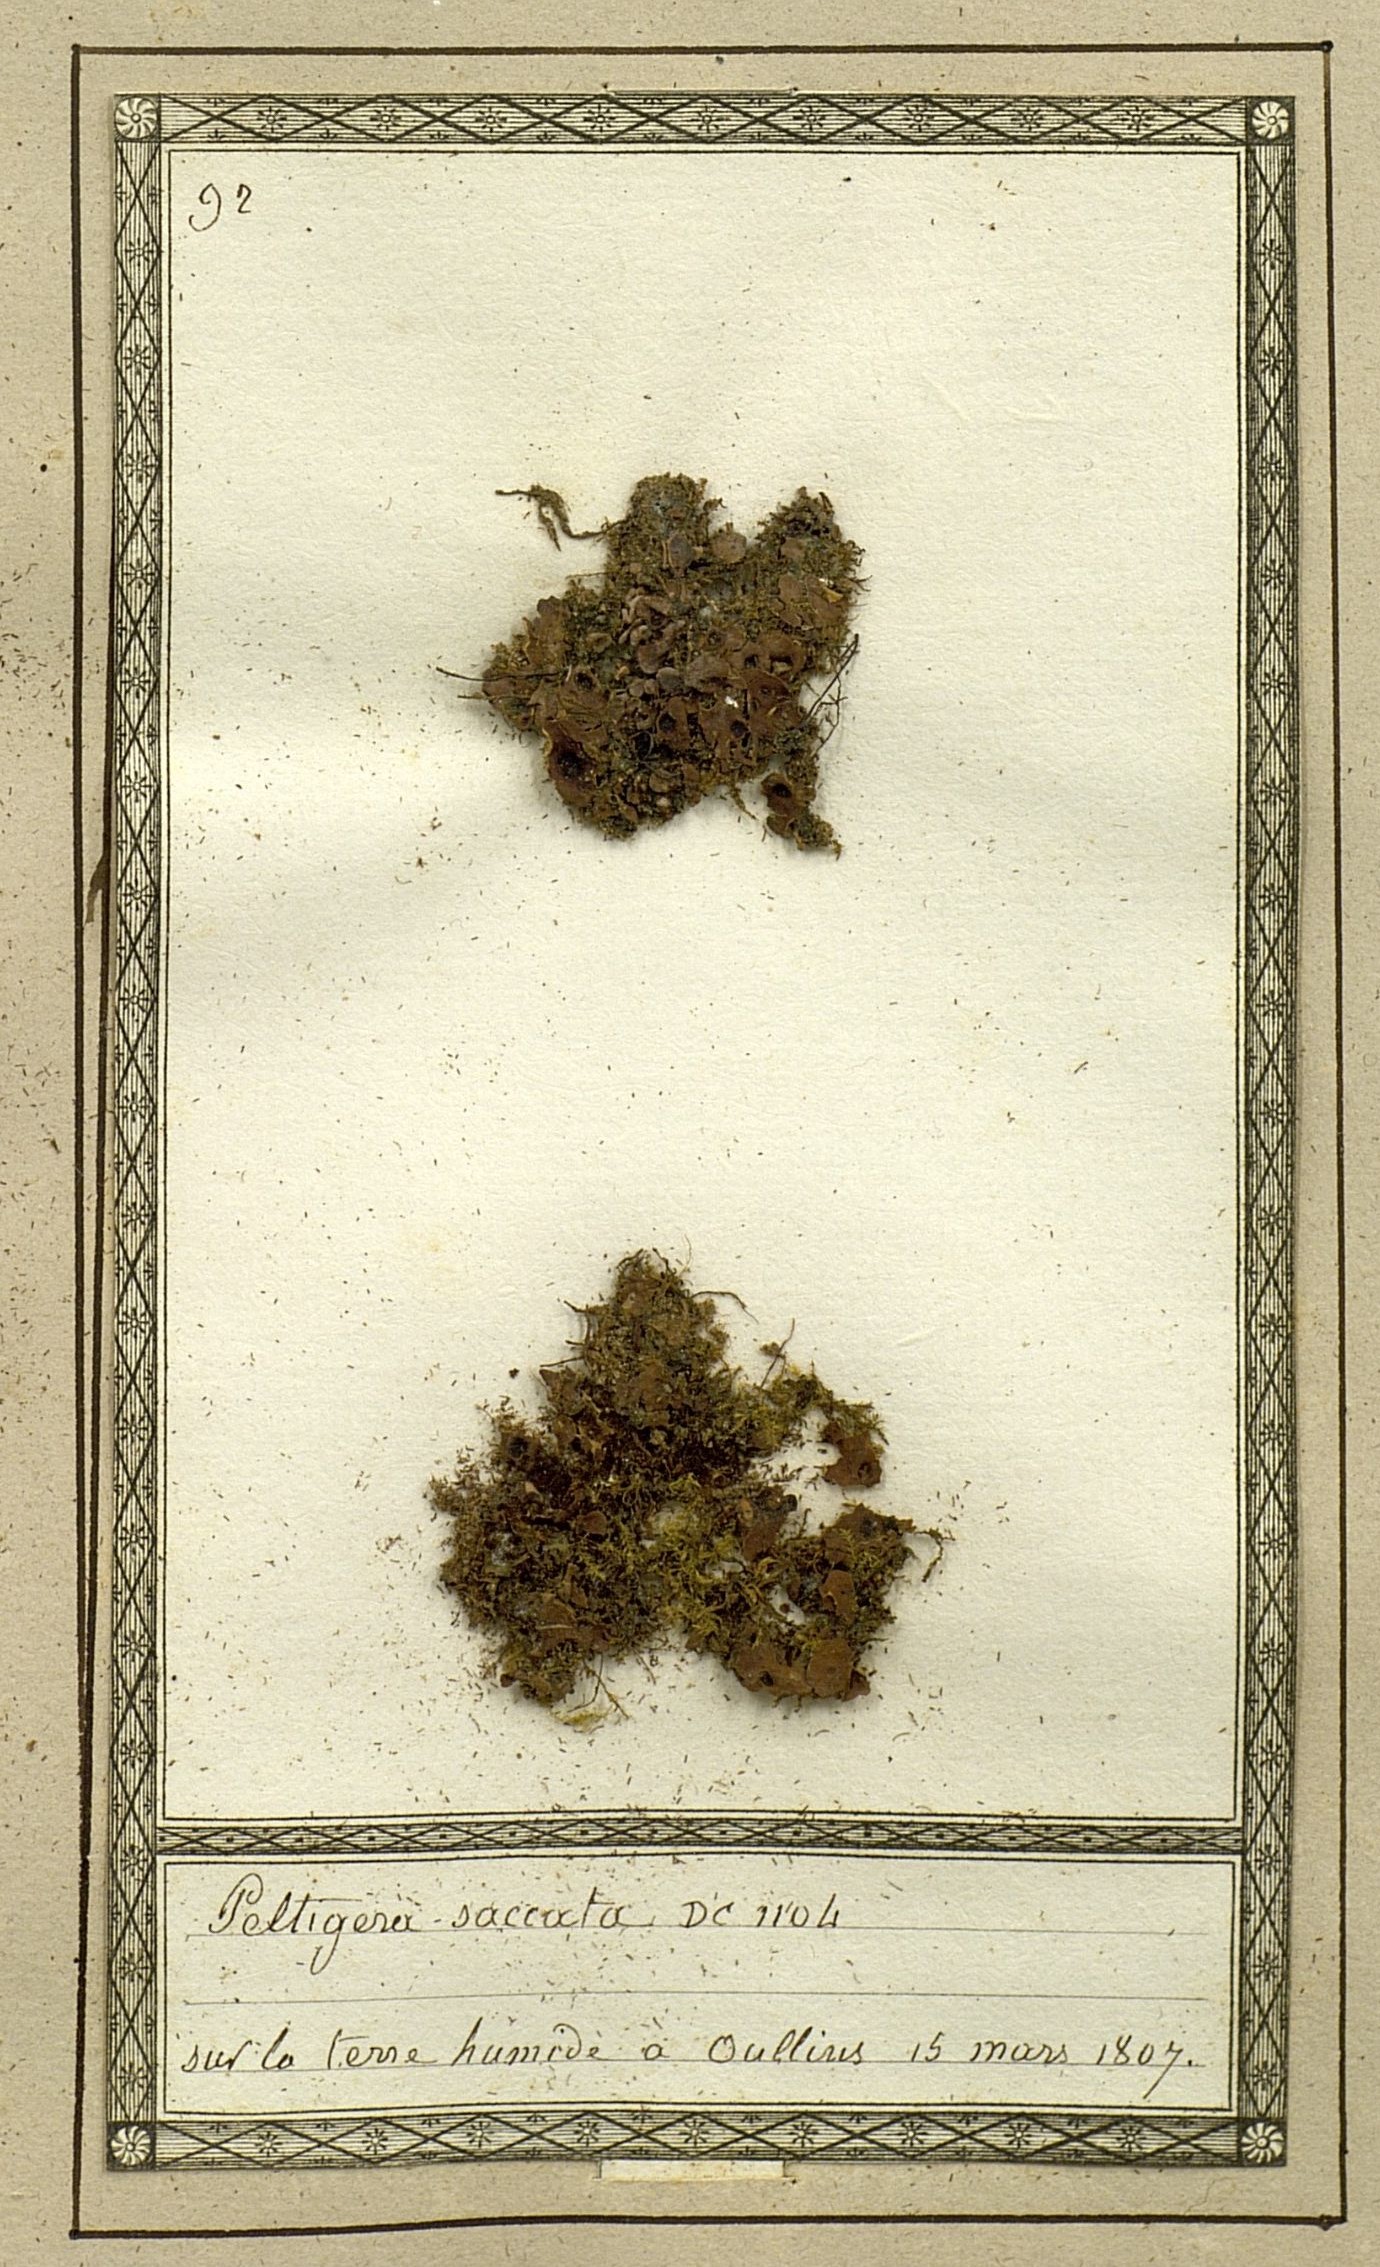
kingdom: Fungi
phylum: Ascomycota
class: Lecanoromycetes
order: Peltigerales
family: Peltigeraceae
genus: Solorina
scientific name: Solorina saccata
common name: Common chocolate chip lichen
